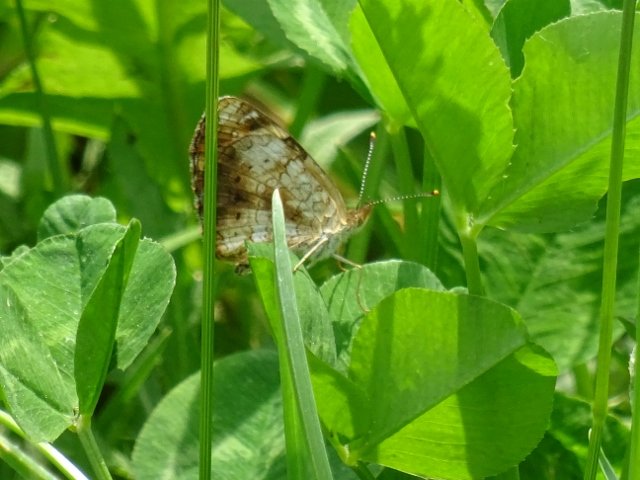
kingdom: Animalia
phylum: Arthropoda
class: Insecta
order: Lepidoptera
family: Nymphalidae
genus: Phyciodes
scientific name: Phyciodes tharos
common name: Northern Crescent
